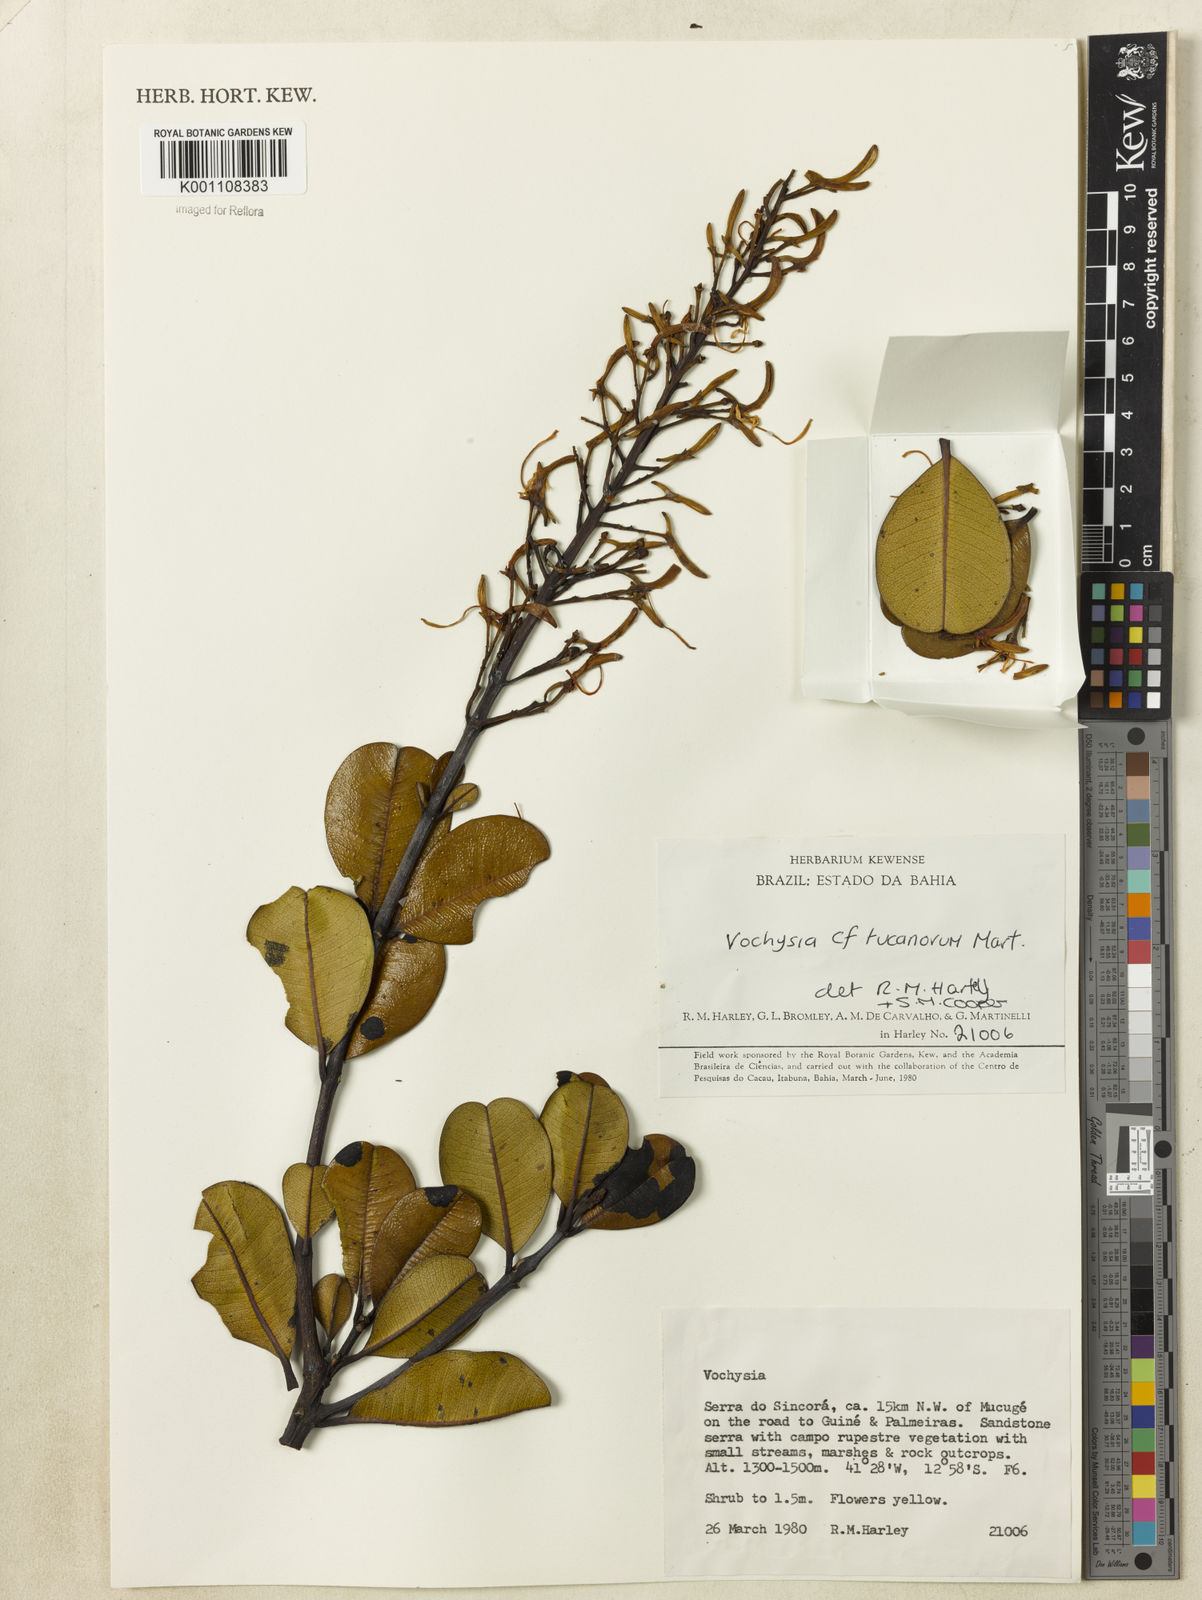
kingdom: Plantae
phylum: Tracheophyta
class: Magnoliopsida
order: Myrtales
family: Vochysiaceae
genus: Vochysia
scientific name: Vochysia tucanorum
